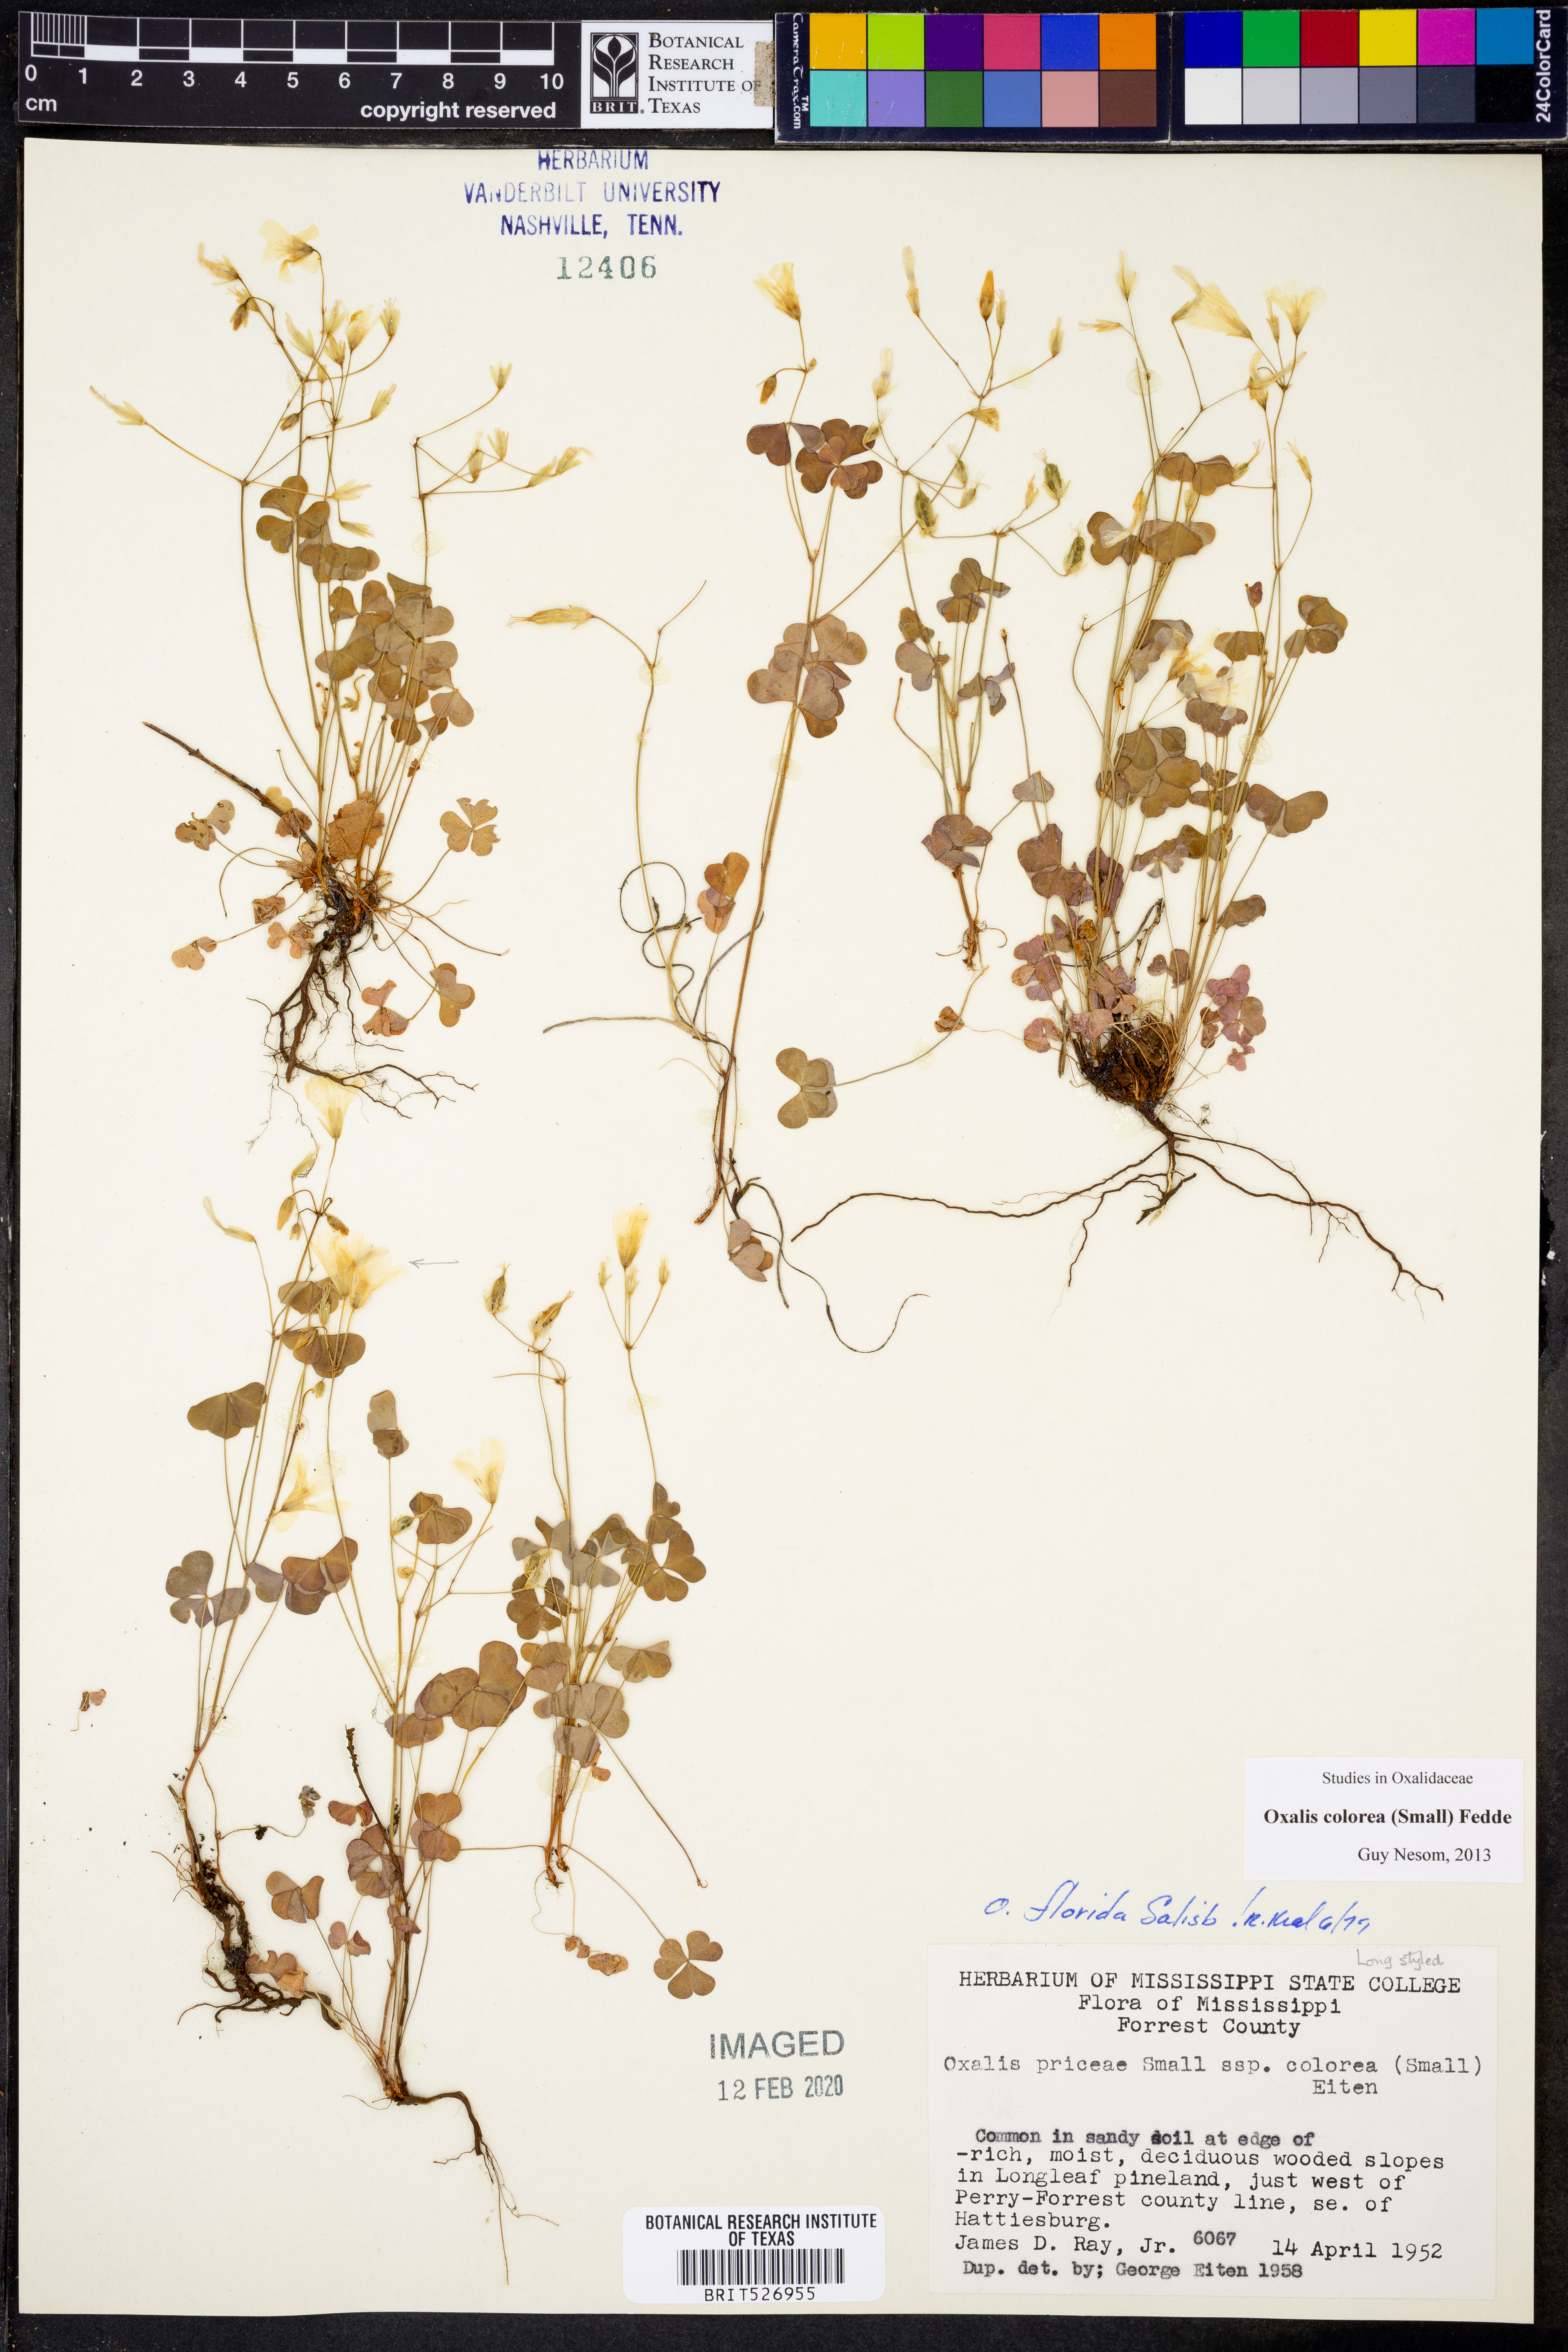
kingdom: Plantae
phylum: Tracheophyta
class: Magnoliopsida
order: Oxalidales
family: Oxalidaceae
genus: Oxalis
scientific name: Oxalis colorea
